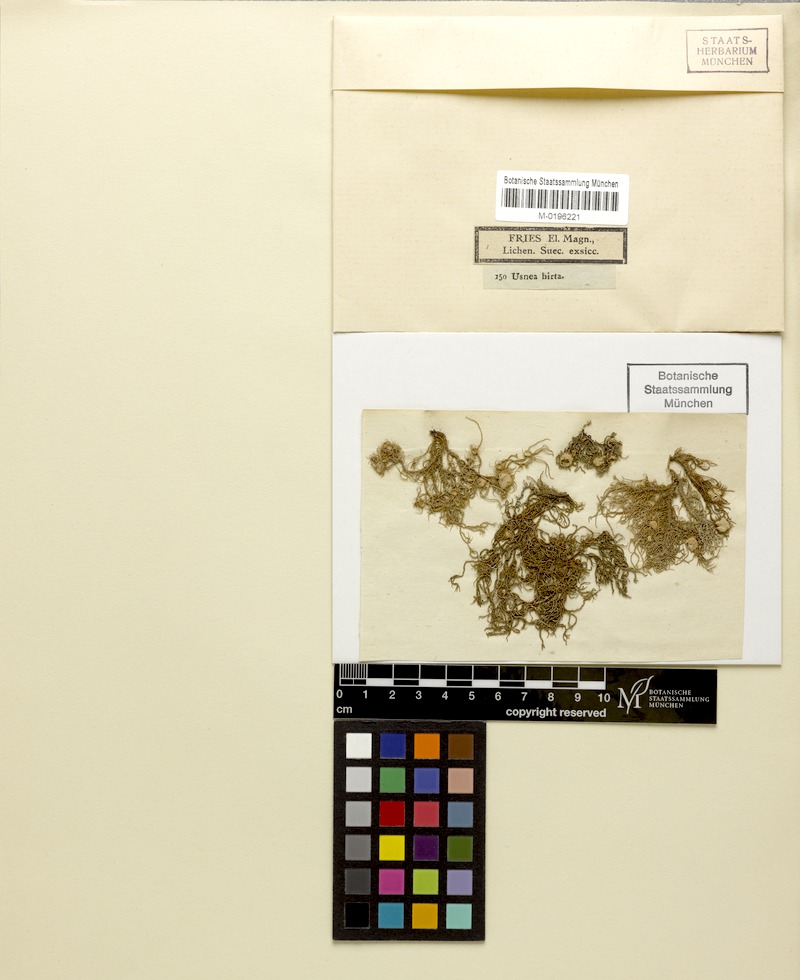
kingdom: Fungi
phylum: Ascomycota
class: Lecanoromycetes
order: Lecanorales
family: Parmeliaceae
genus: Usnea
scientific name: Usnea hirta
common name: Bristly beard lichen
